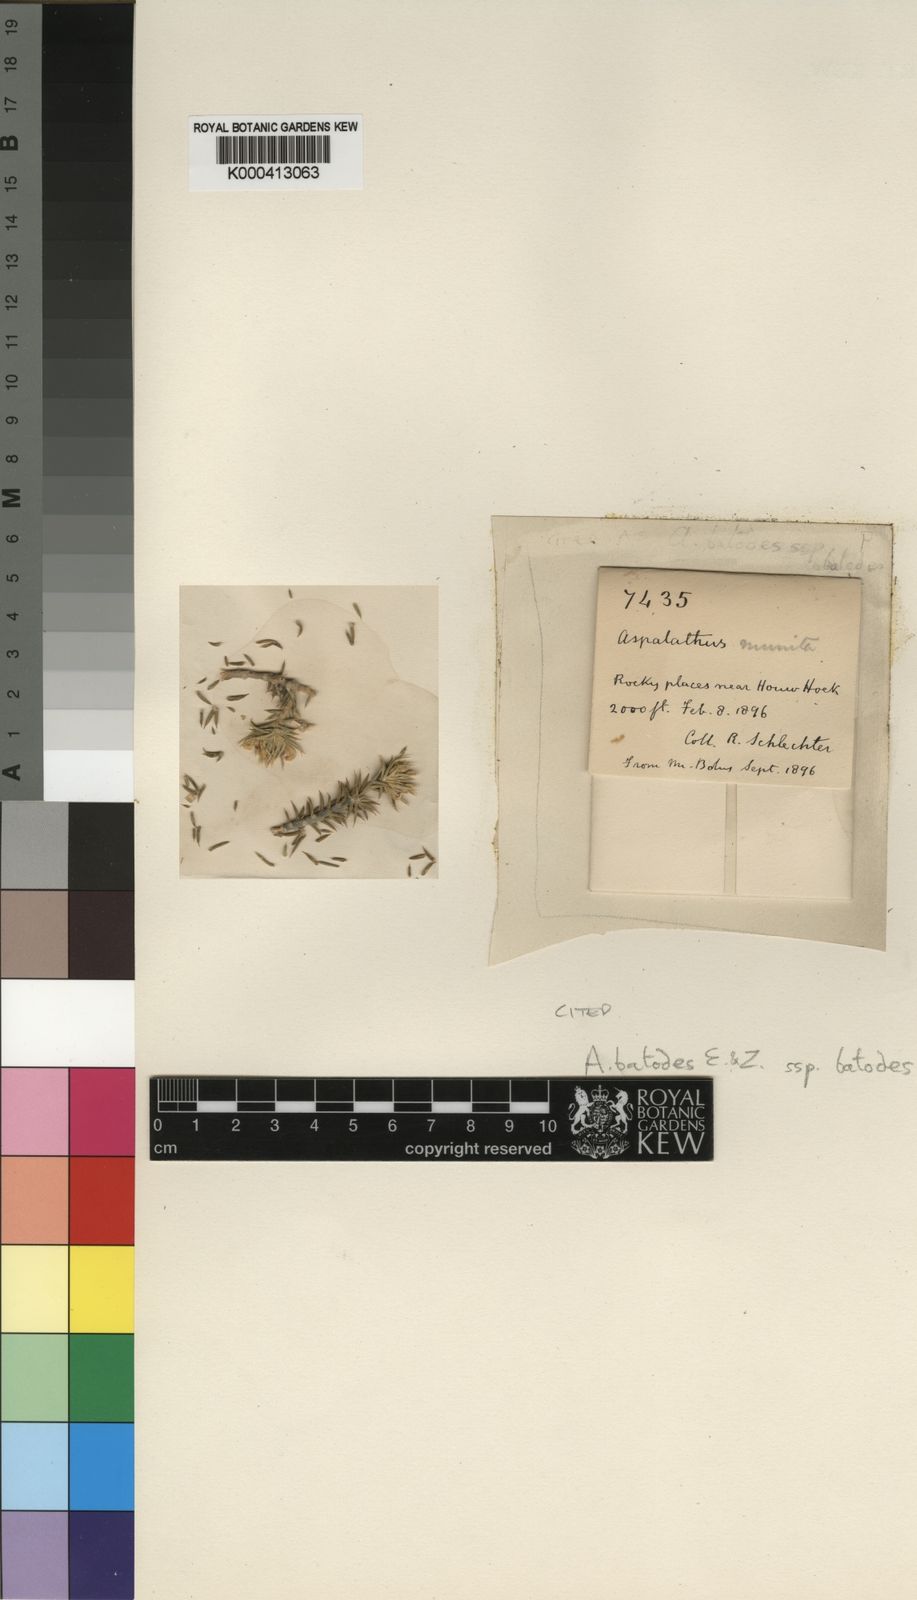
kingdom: Plantae
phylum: Tracheophyta
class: Magnoliopsida
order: Fabales
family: Fabaceae
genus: Aspalathus
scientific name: Aspalathus batodes
